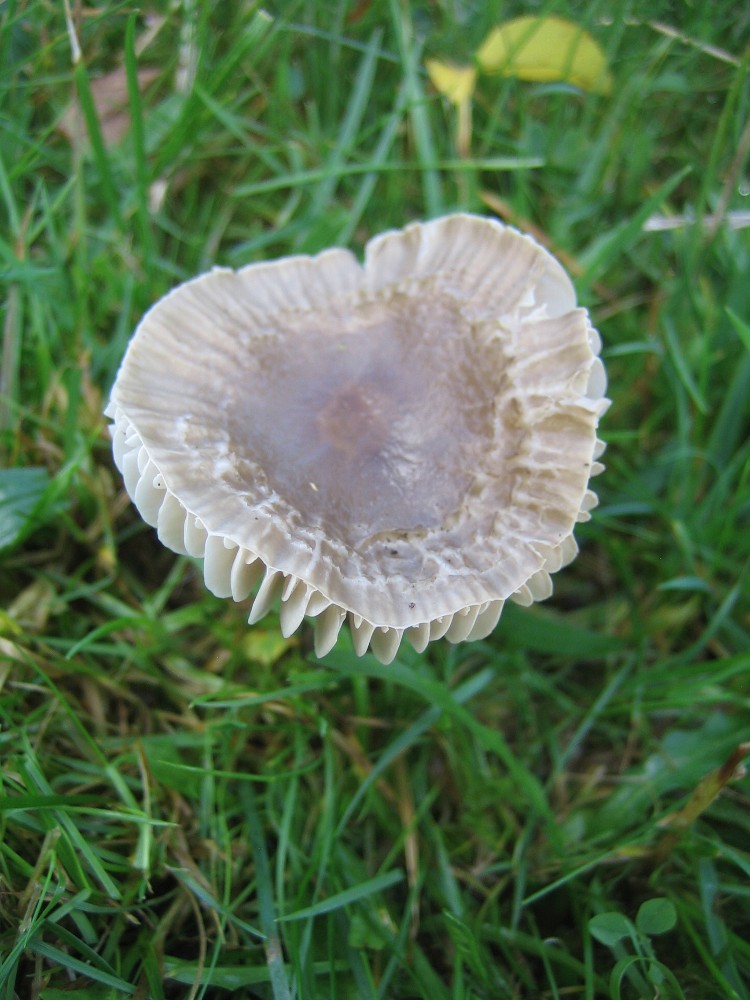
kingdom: Fungi
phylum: Basidiomycota
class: Agaricomycetes
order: Agaricales
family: Hygrophoraceae
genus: Gliophorus
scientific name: Gliophorus irrigatus
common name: slimet vokshat
